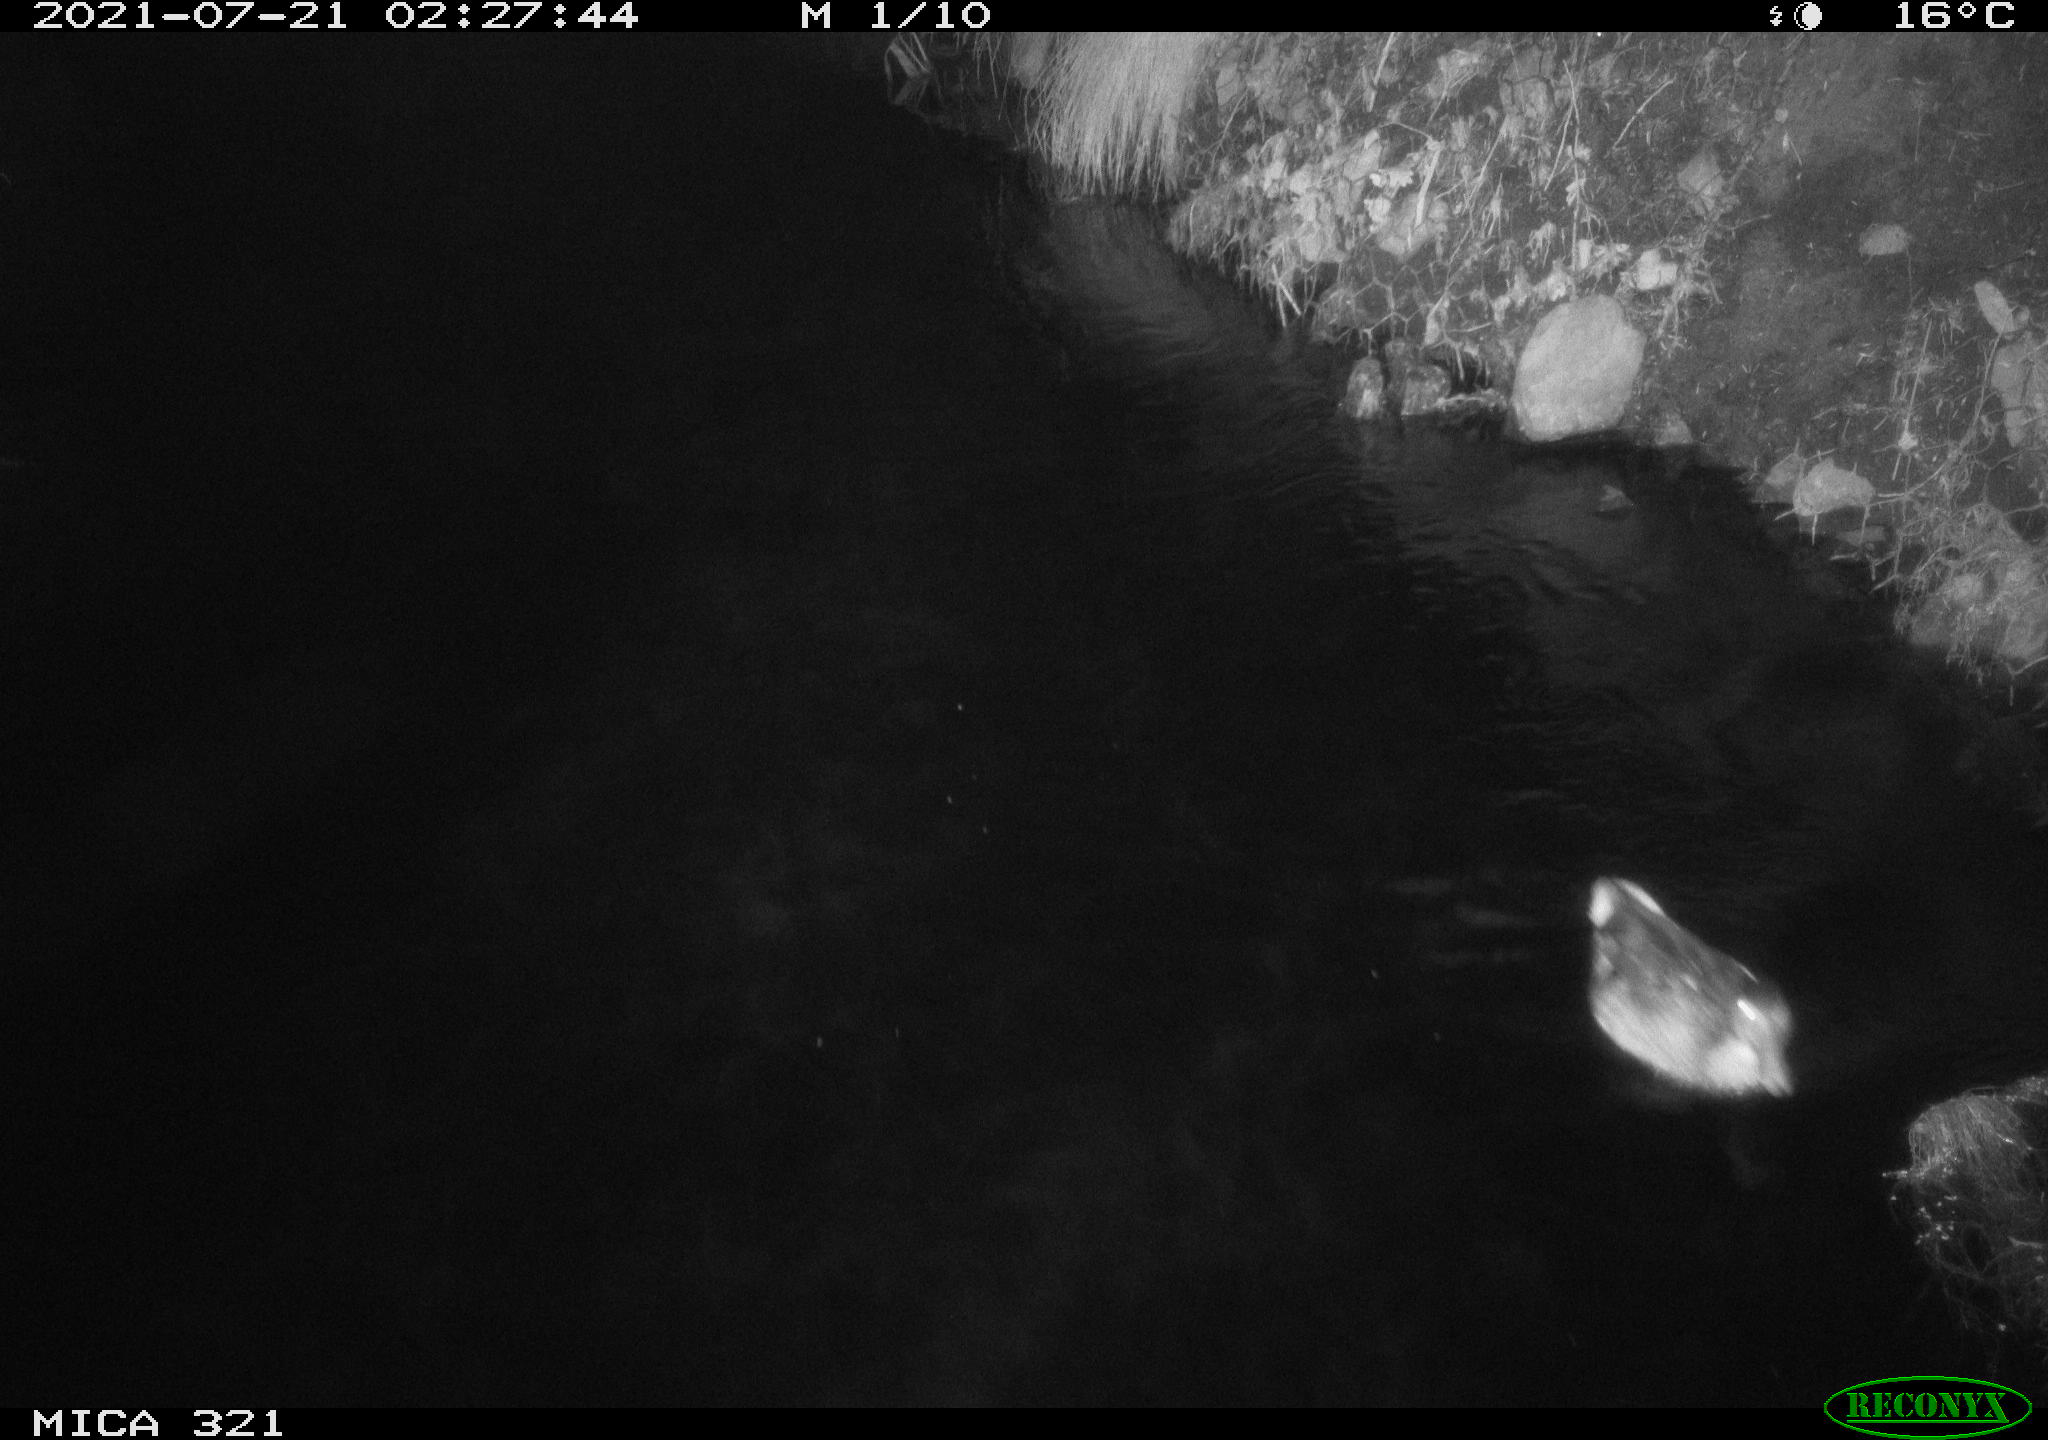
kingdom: Animalia
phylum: Chordata
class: Aves
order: Anseriformes
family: Anatidae
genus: Anas
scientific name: Anas platyrhynchos
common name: Mallard
